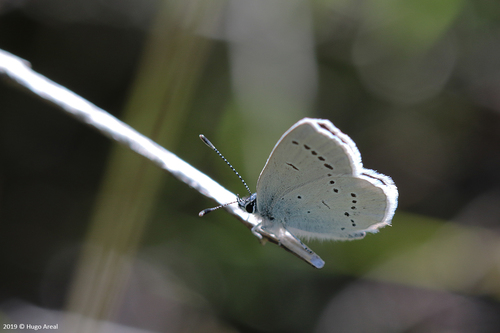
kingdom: Animalia
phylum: Arthropoda
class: Insecta
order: Lepidoptera
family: Lycaenidae
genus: Cupido
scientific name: Cupido lorquinii
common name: Lorquin’s blue
